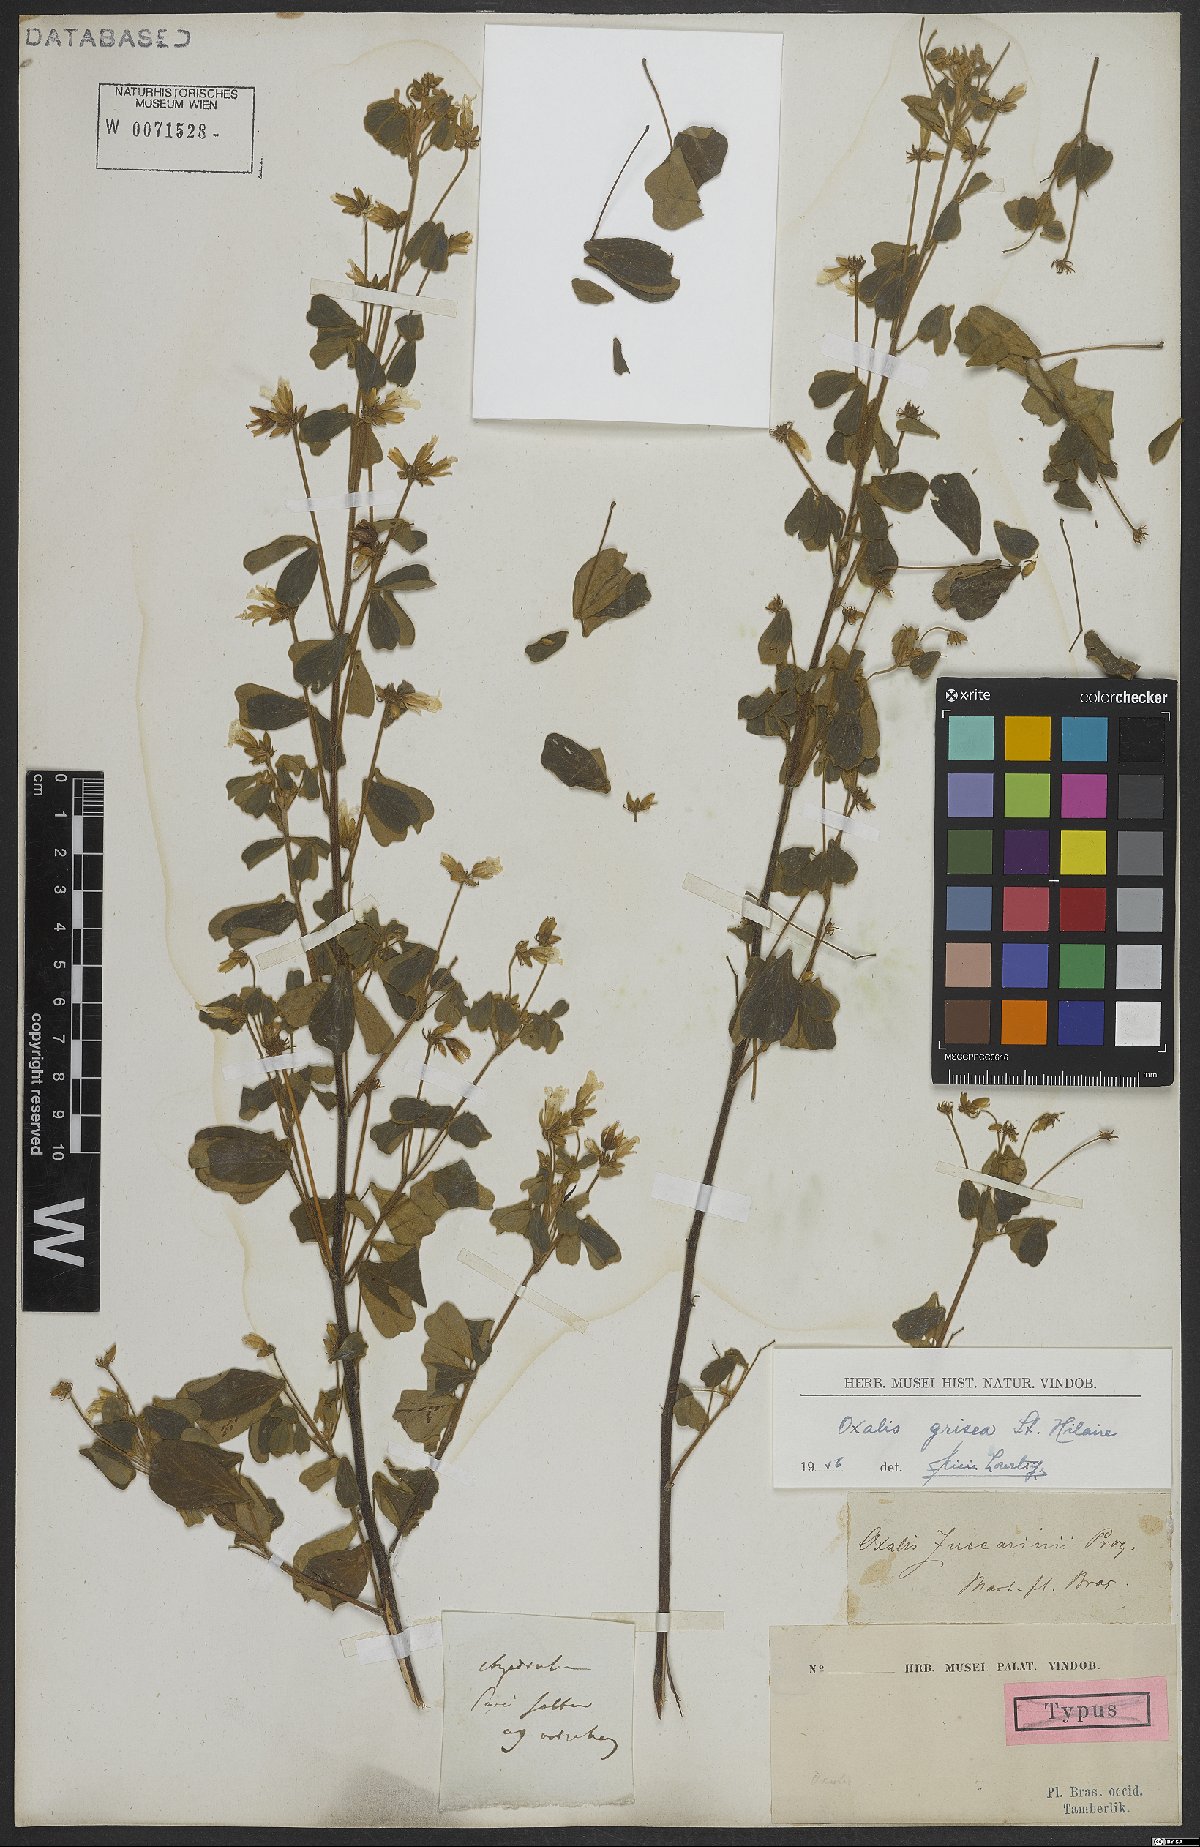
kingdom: Plantae
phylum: Tracheophyta
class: Magnoliopsida
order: Oxalidales
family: Oxalidaceae
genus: Oxalis
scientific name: Oxalis grisea
